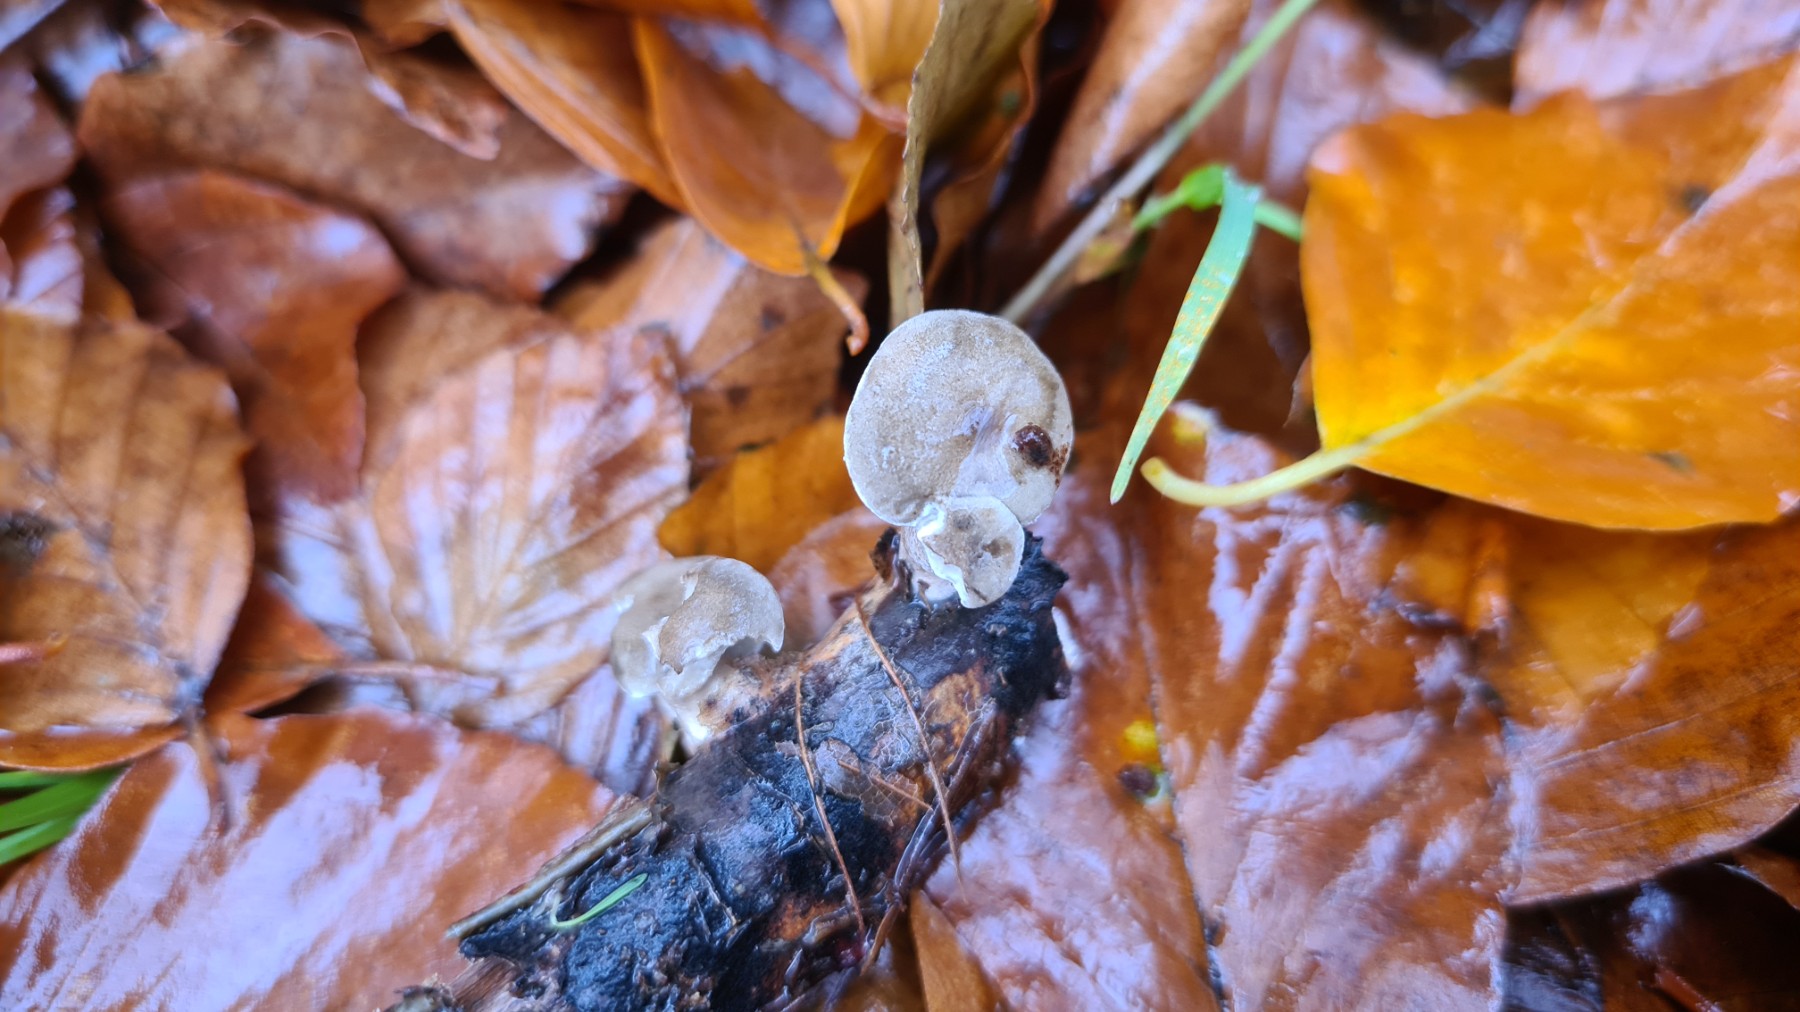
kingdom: Fungi
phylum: Basidiomycota
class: Agaricomycetes
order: Polyporales
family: Polyporaceae
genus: Lentinus
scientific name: Lentinus brumalis
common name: vinter-stilkporesvamp
